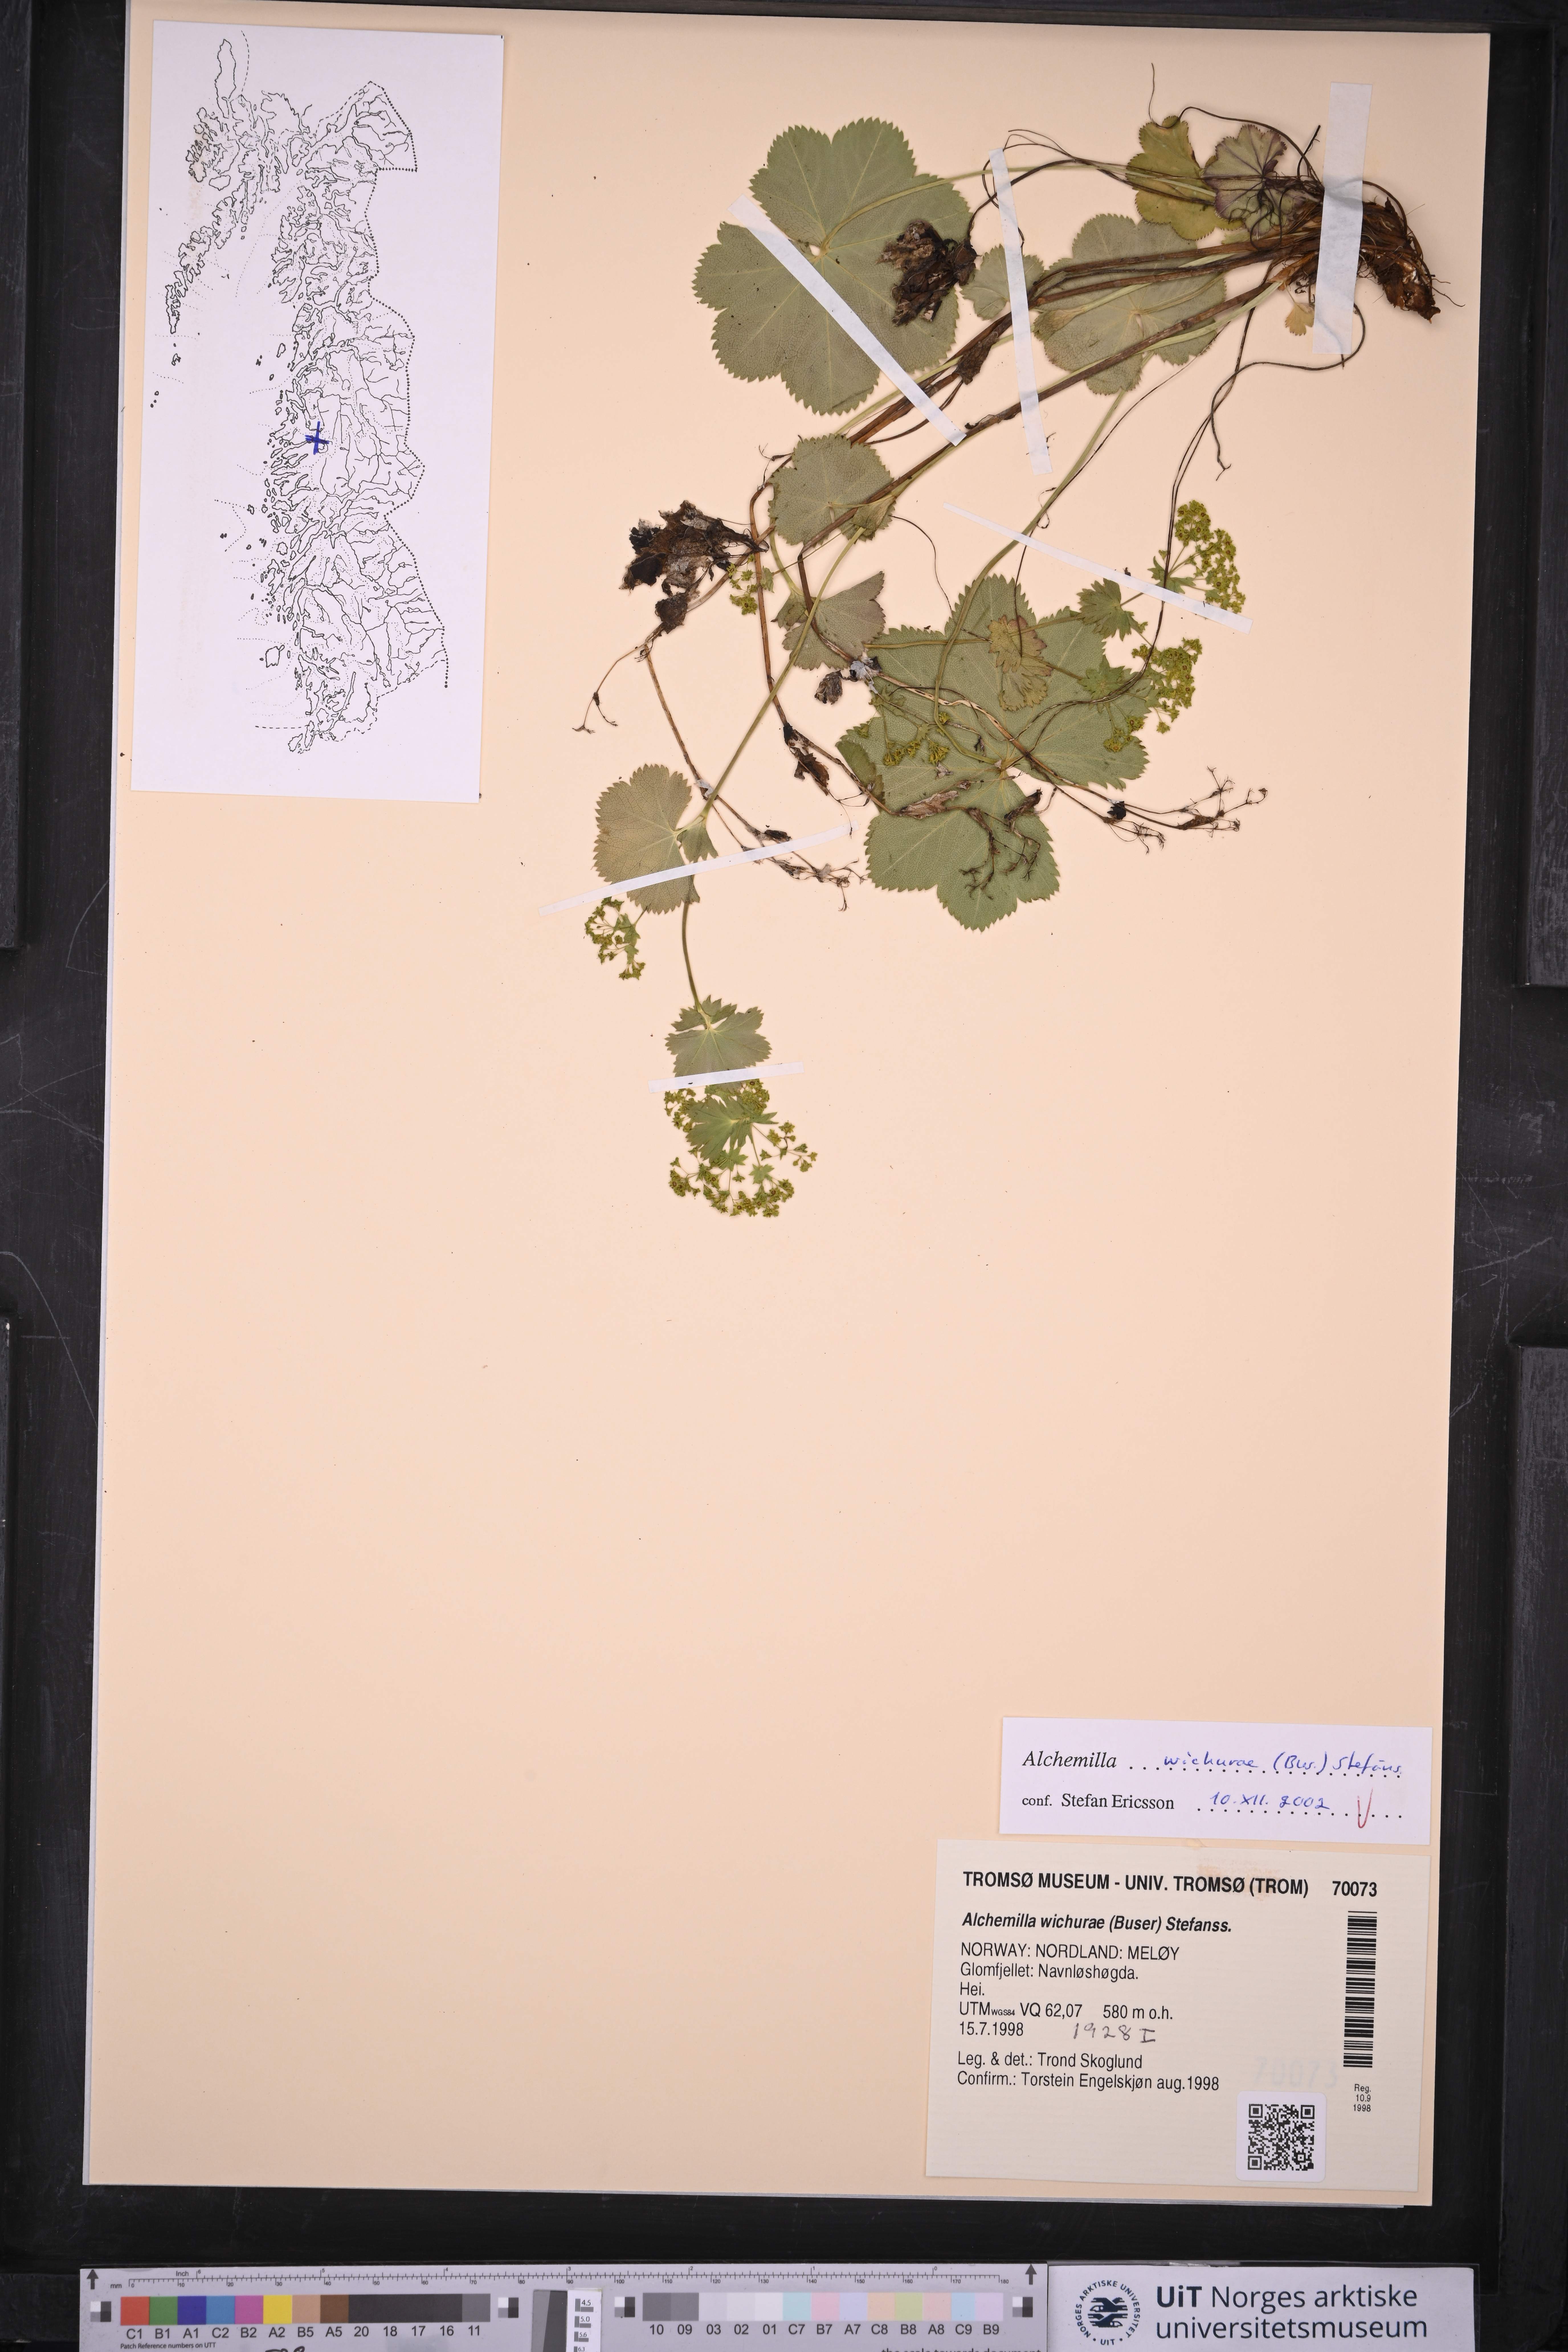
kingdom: Plantae
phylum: Tracheophyta
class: Magnoliopsida
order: Rosales
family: Rosaceae
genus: Alchemilla
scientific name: Alchemilla wichurae
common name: Rock lady's mantle
